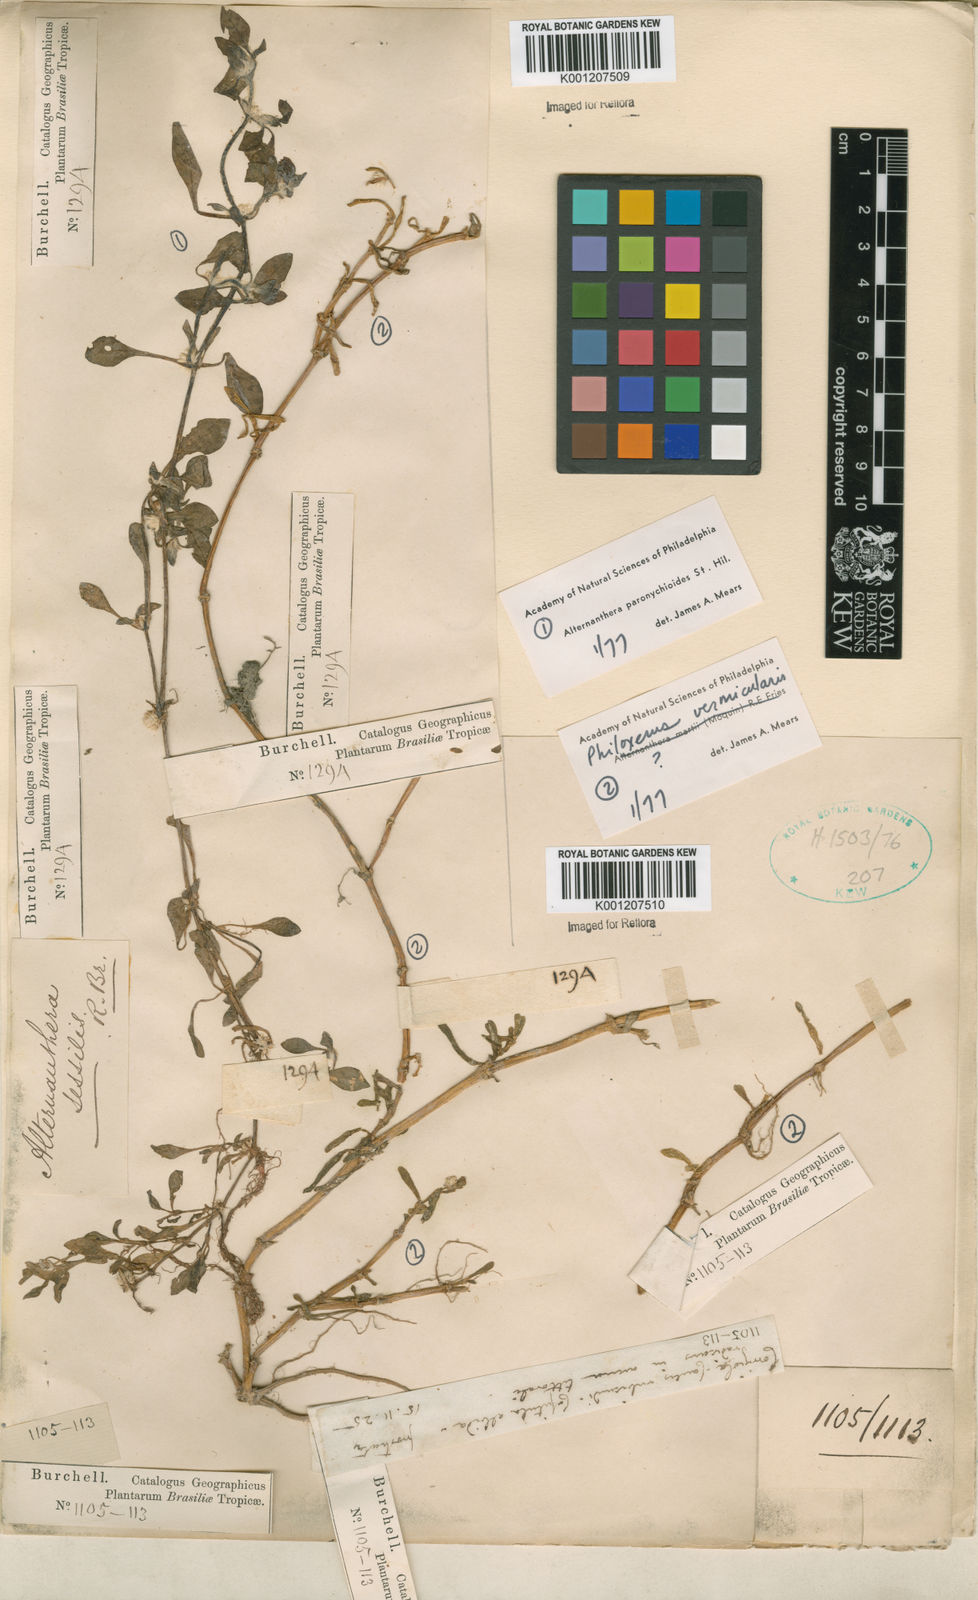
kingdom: Plantae
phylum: Tracheophyta
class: Magnoliopsida
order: Caryophyllales
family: Amaranthaceae
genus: Alternanthera
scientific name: Alternanthera paronychioides
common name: Smooth joyweed
